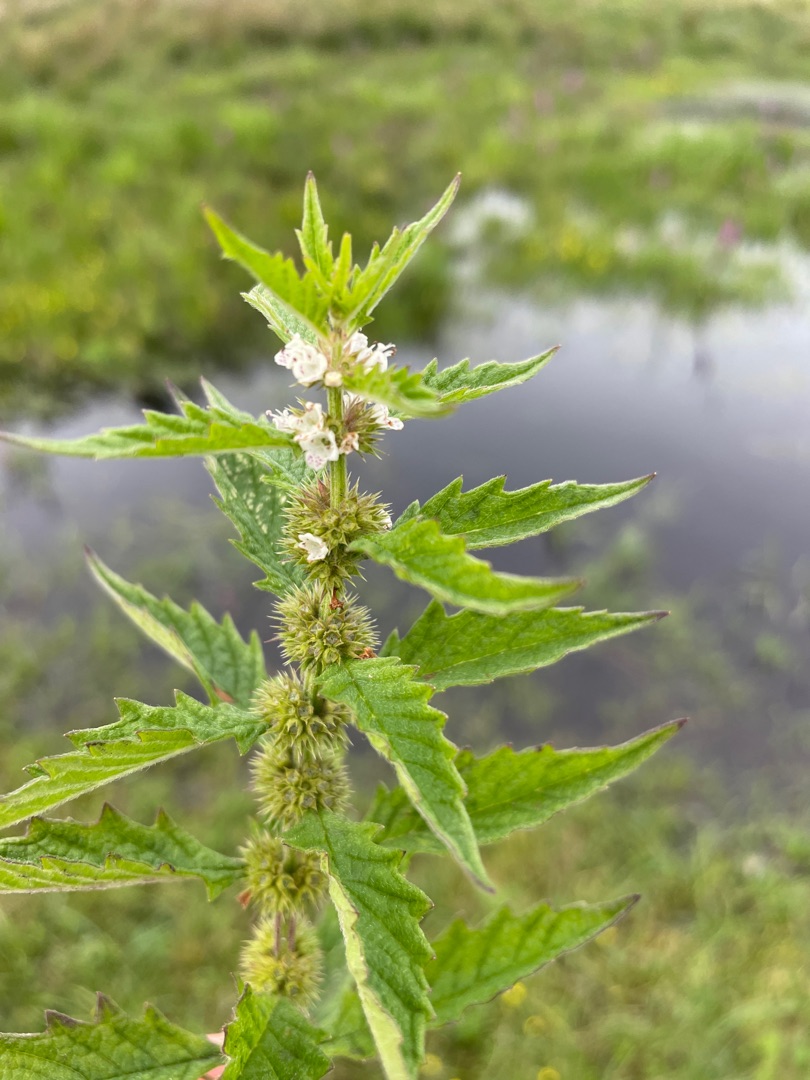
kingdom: Plantae
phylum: Tracheophyta
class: Magnoliopsida
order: Lamiales
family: Lamiaceae
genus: Lycopus
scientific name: Lycopus europaeus
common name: Sværtevæld
